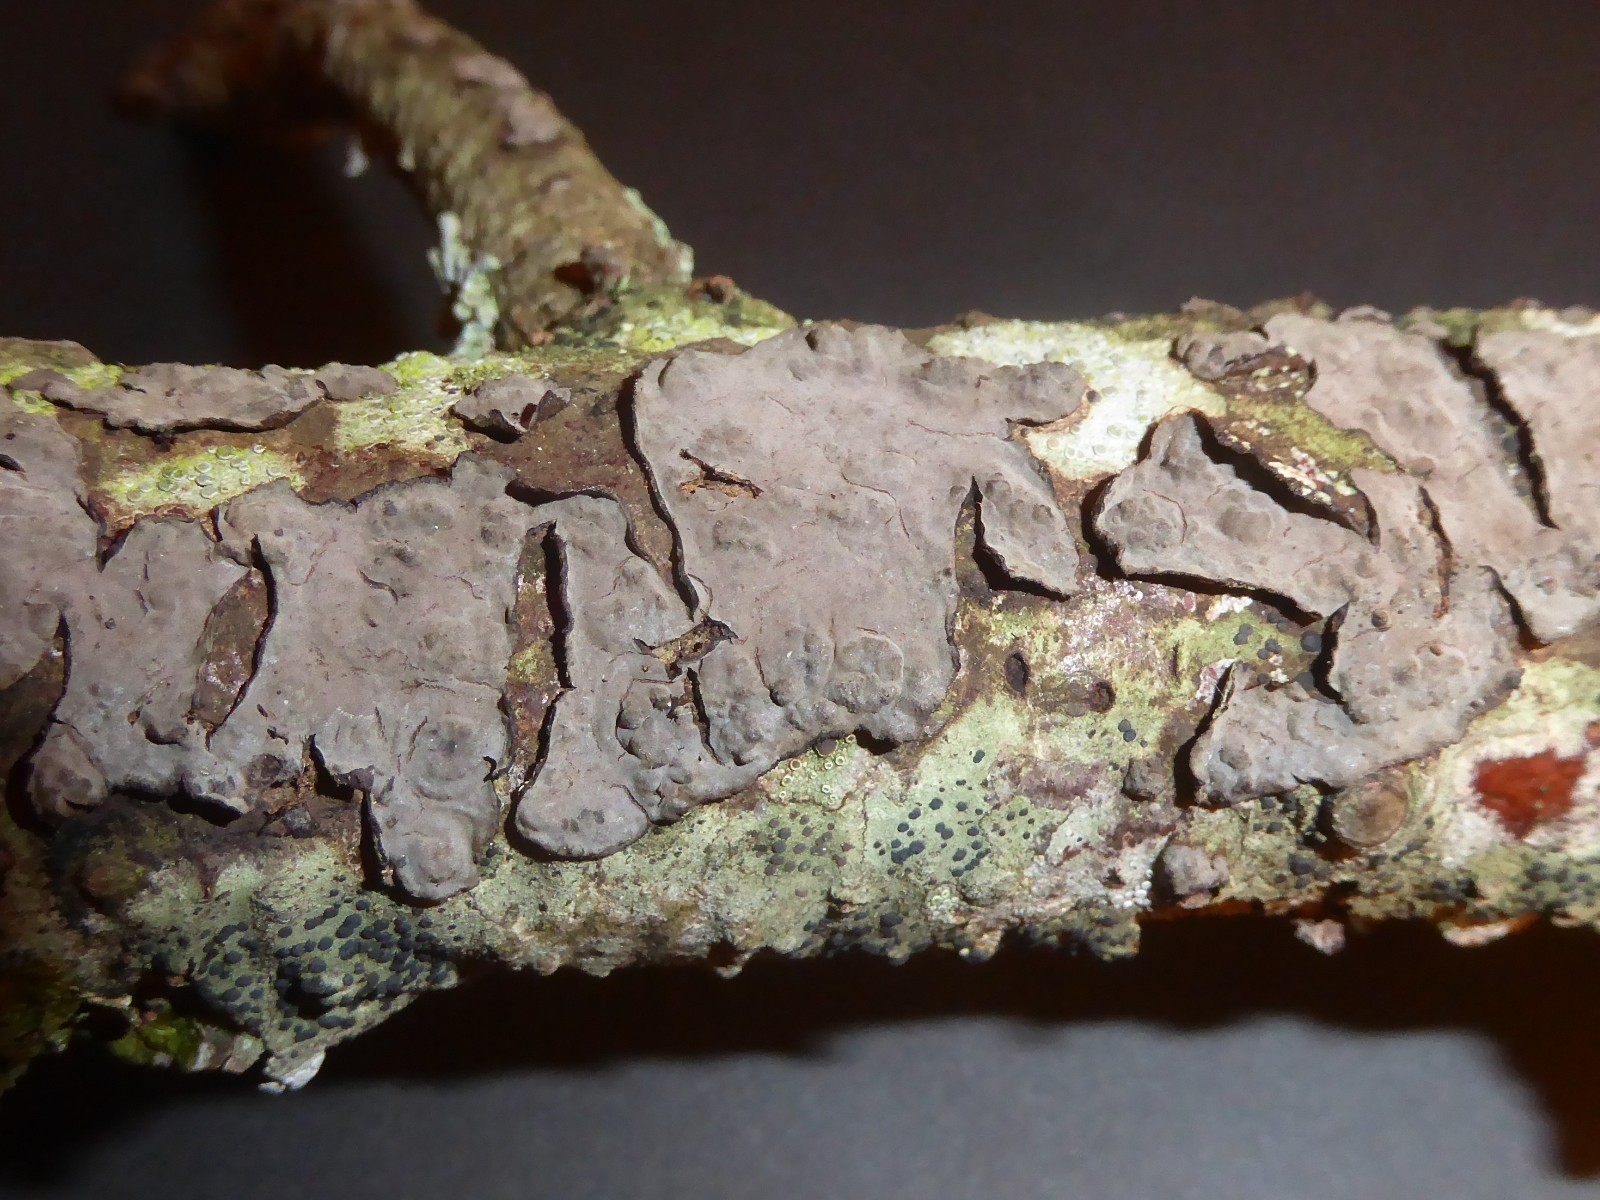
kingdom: Fungi
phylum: Basidiomycota
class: Agaricomycetes
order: Russulales
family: Peniophoraceae
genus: Peniophora
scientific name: Peniophora rufomarginata
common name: linde-voksskind
